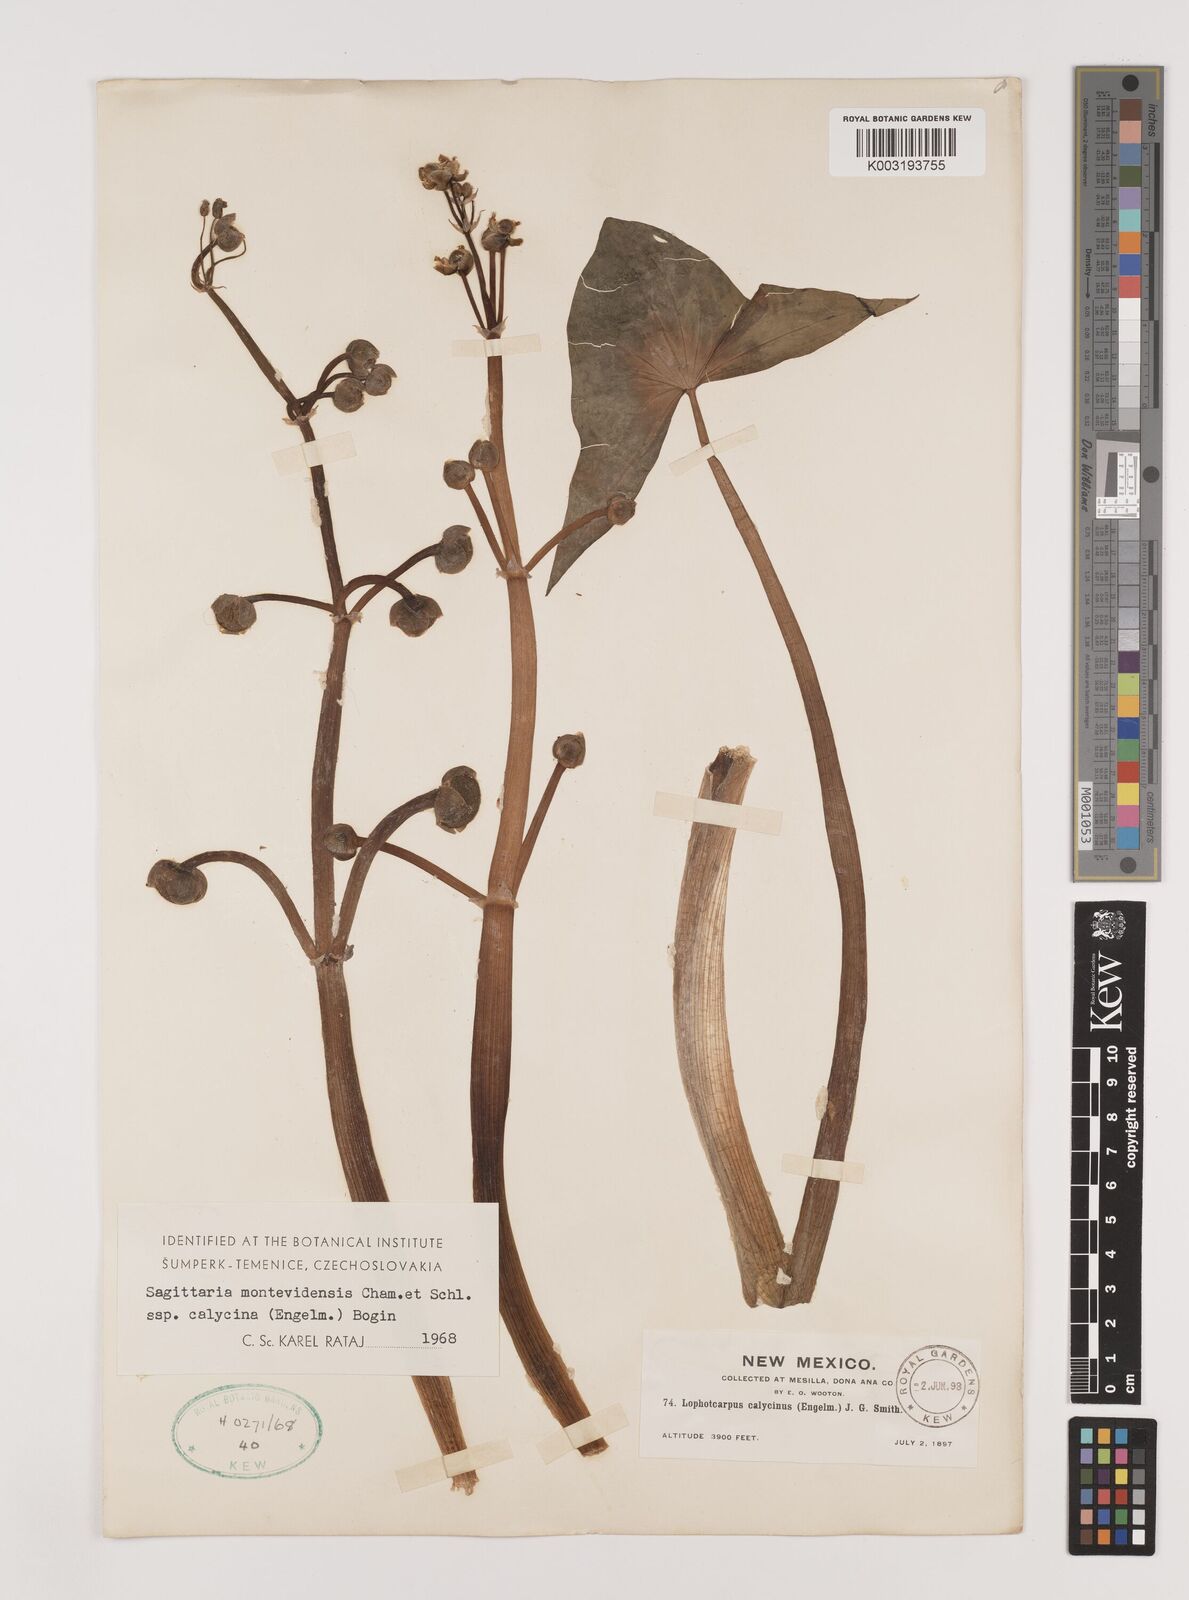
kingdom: Plantae
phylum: Tracheophyta
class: Liliopsida
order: Alismatales
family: Alismataceae
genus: Sagittaria
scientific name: Sagittaria montevidensis
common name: Giant arrowhead
